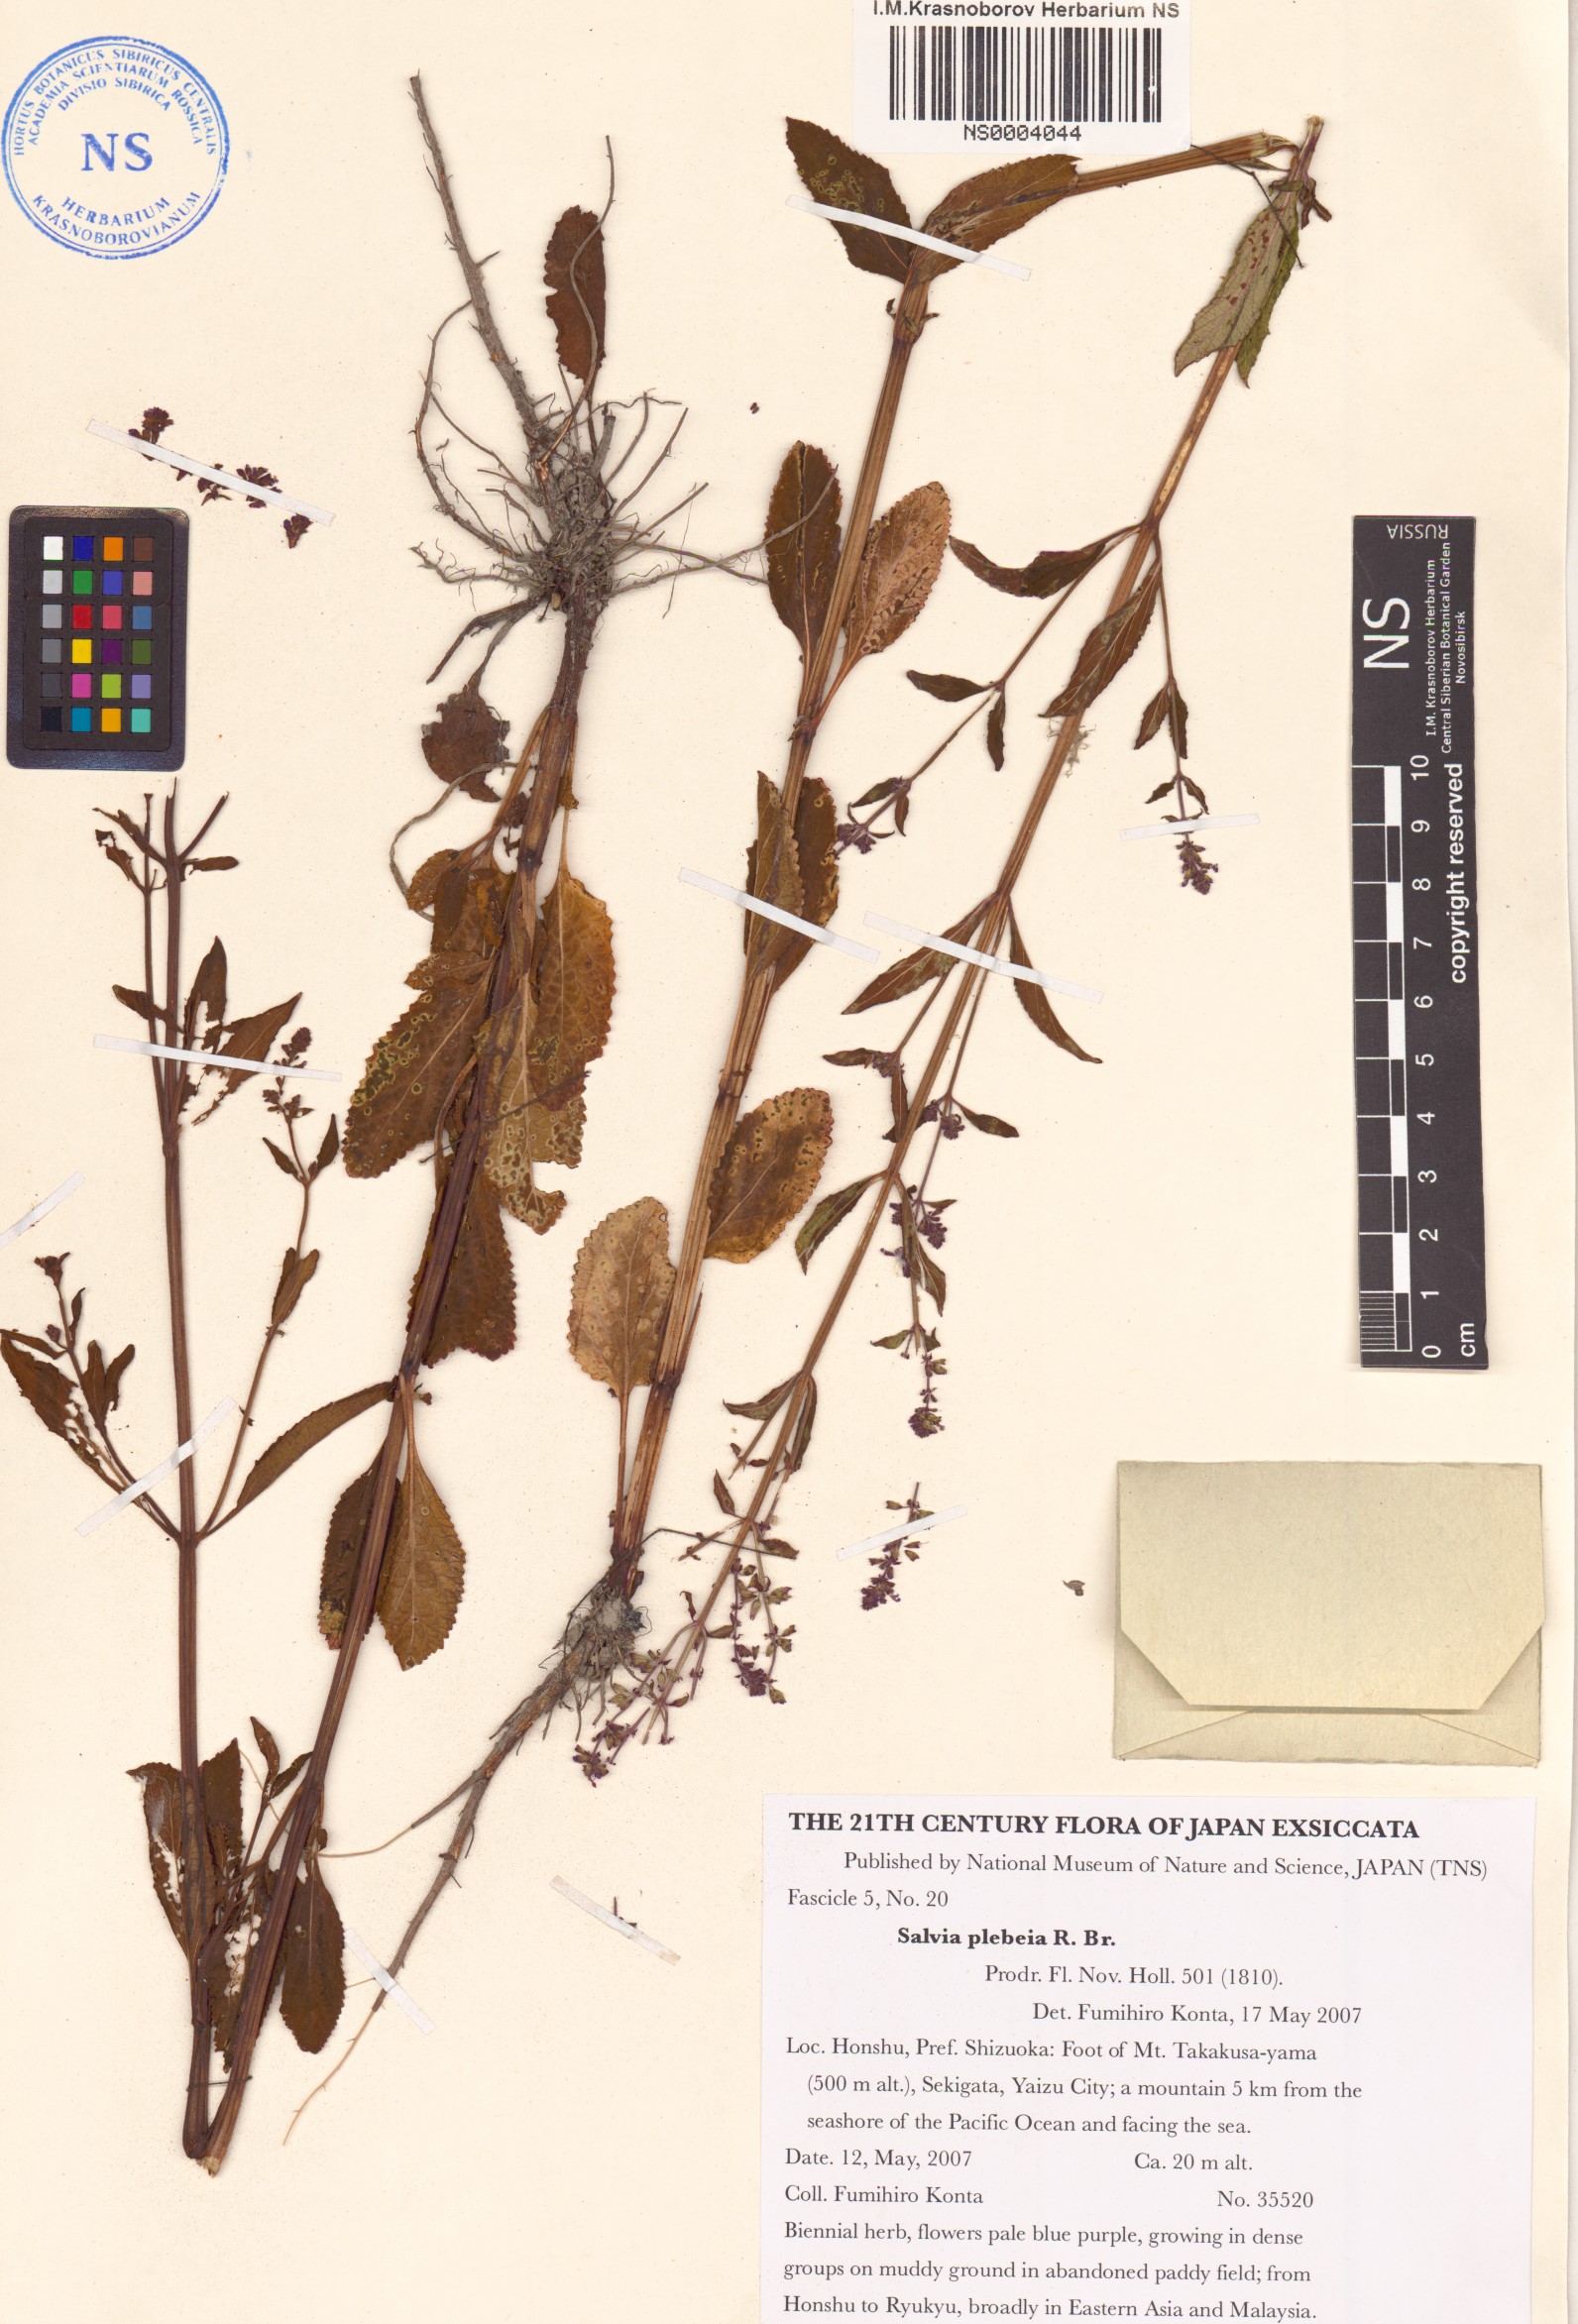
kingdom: Plantae
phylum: Tracheophyta
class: Magnoliopsida
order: Lamiales
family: Lamiaceae
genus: Salvia
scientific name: Salvia plebeia
